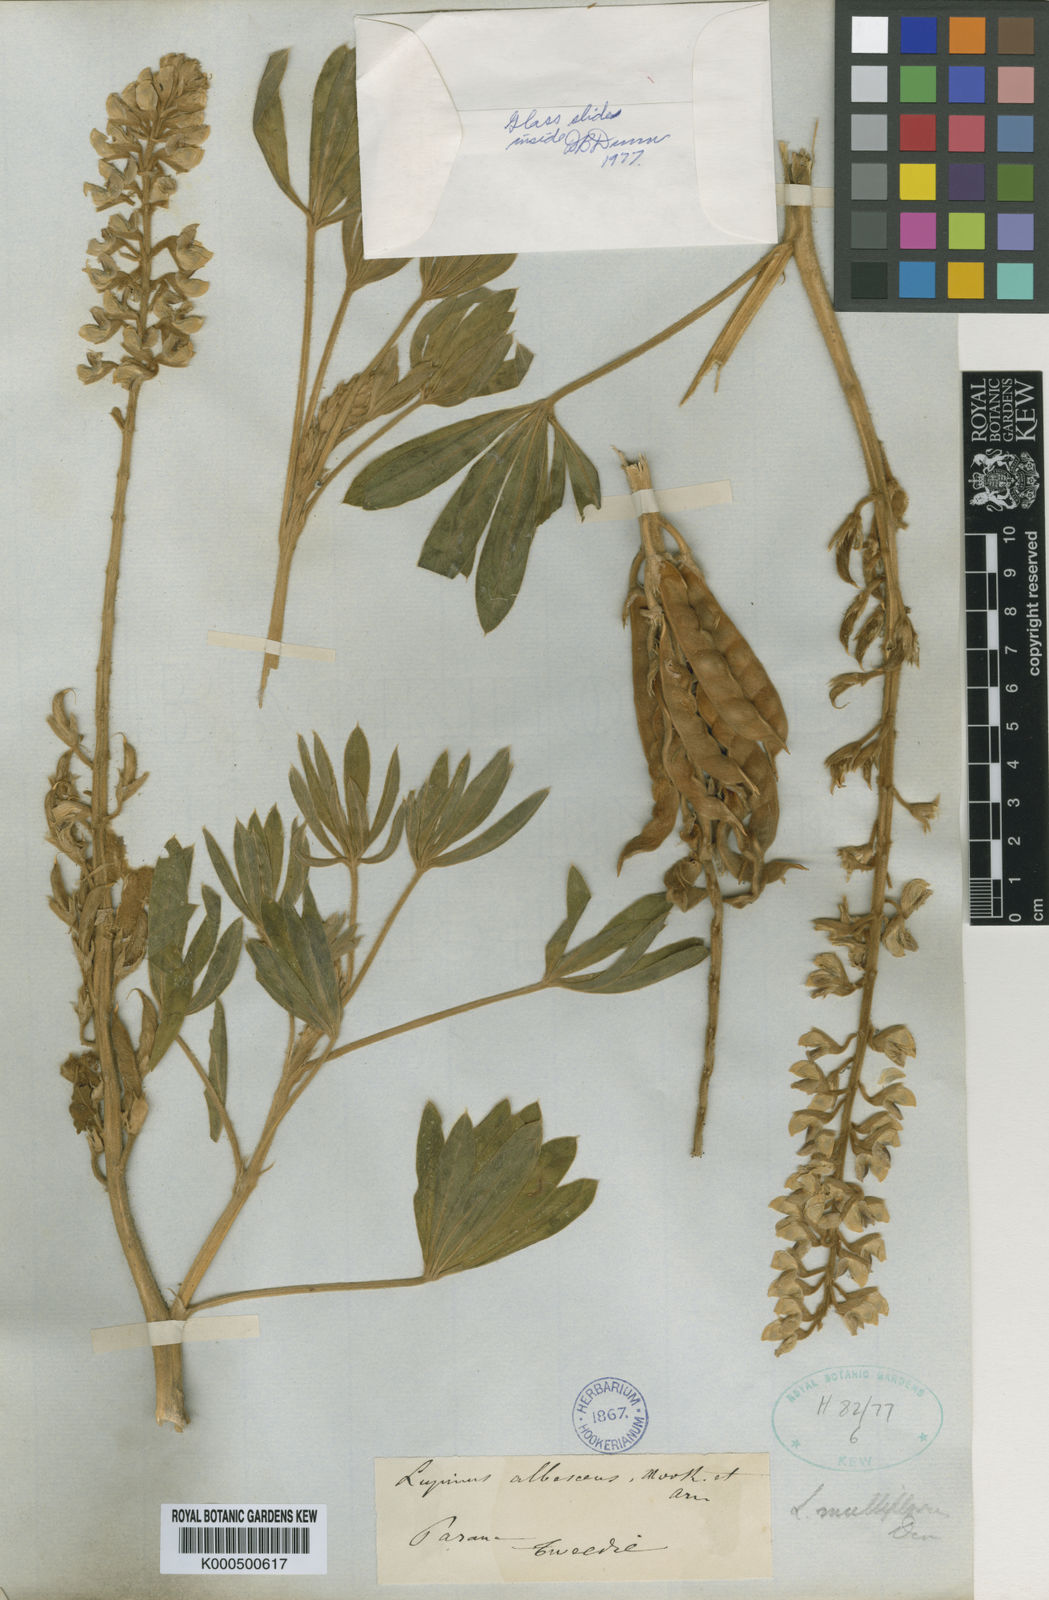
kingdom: Plantae
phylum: Tracheophyta
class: Magnoliopsida
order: Fabales
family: Fabaceae
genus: Lupinus
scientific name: Lupinus multiflorus
